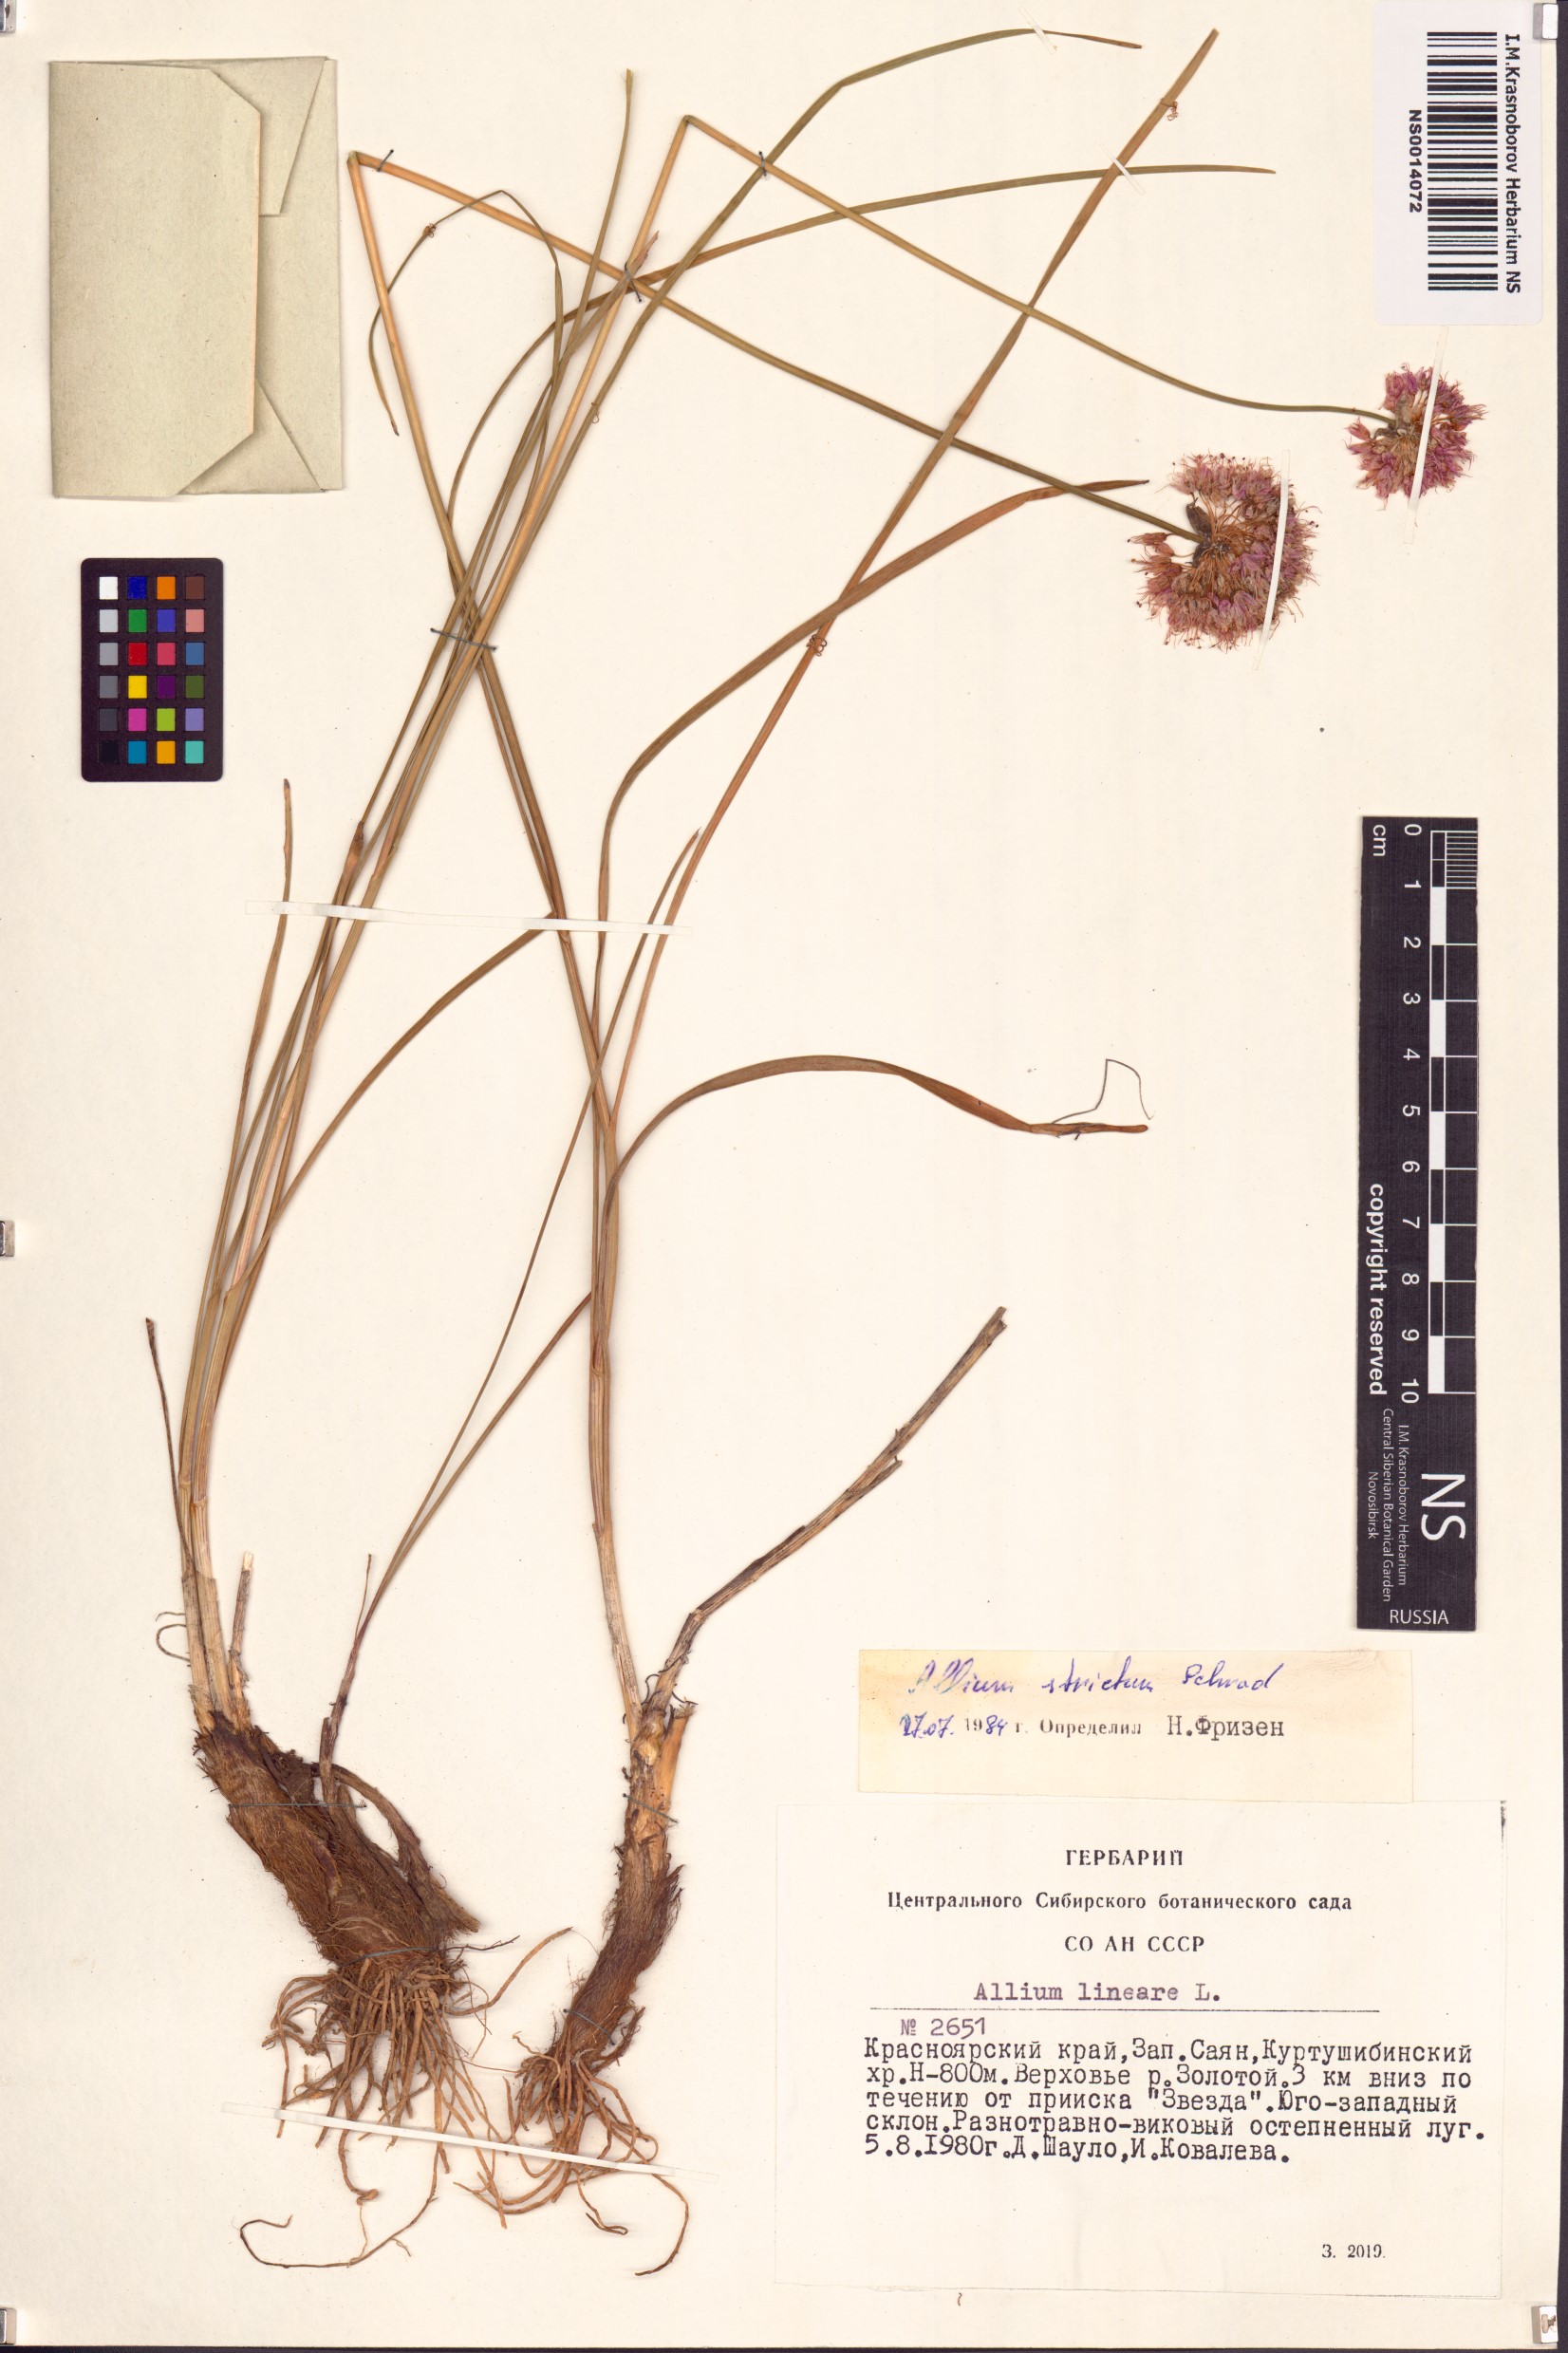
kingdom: Plantae
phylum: Tracheophyta
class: Liliopsida
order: Asparagales
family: Amaryllidaceae
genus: Allium
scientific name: Allium strictum
